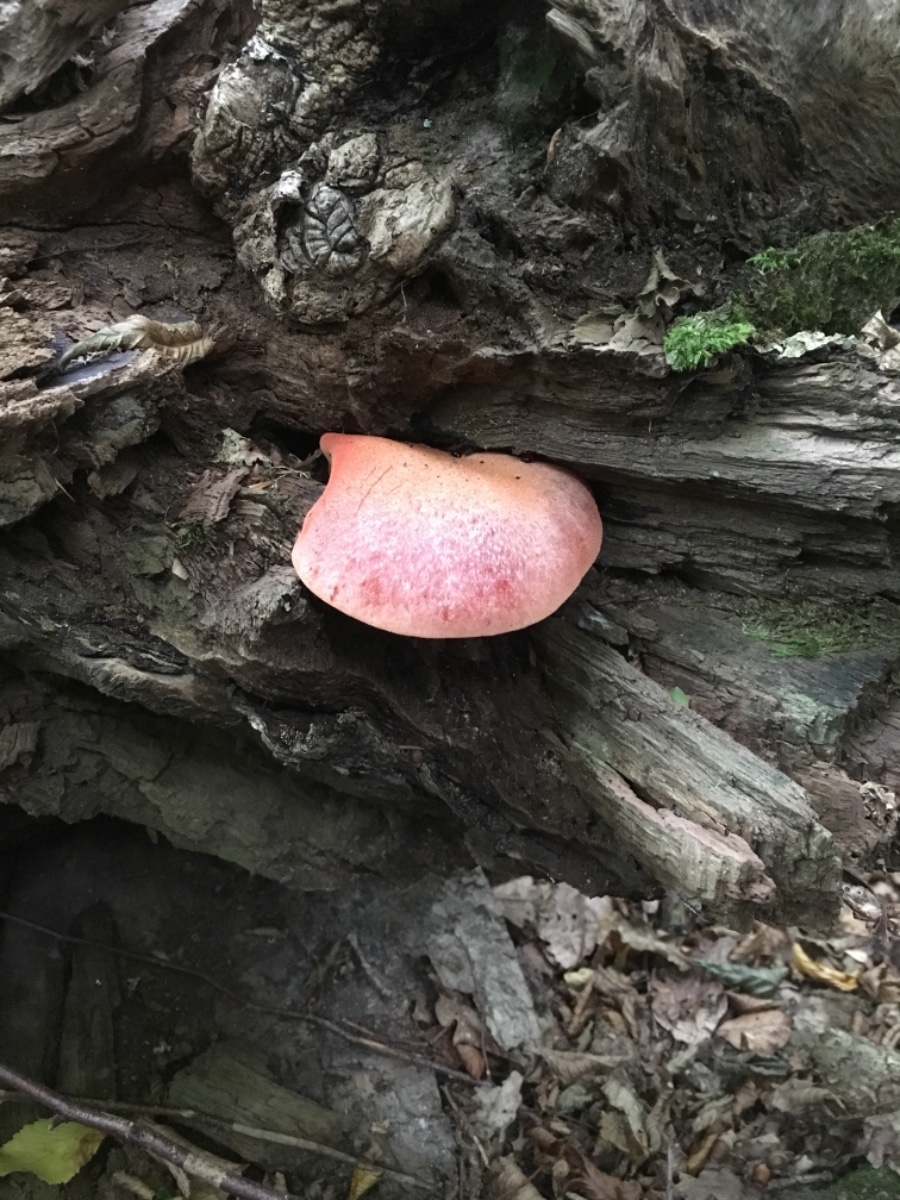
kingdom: Fungi
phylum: Basidiomycota
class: Agaricomycetes
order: Agaricales
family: Fistulinaceae
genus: Fistulina
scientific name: Fistulina hepatica
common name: oksetunge
